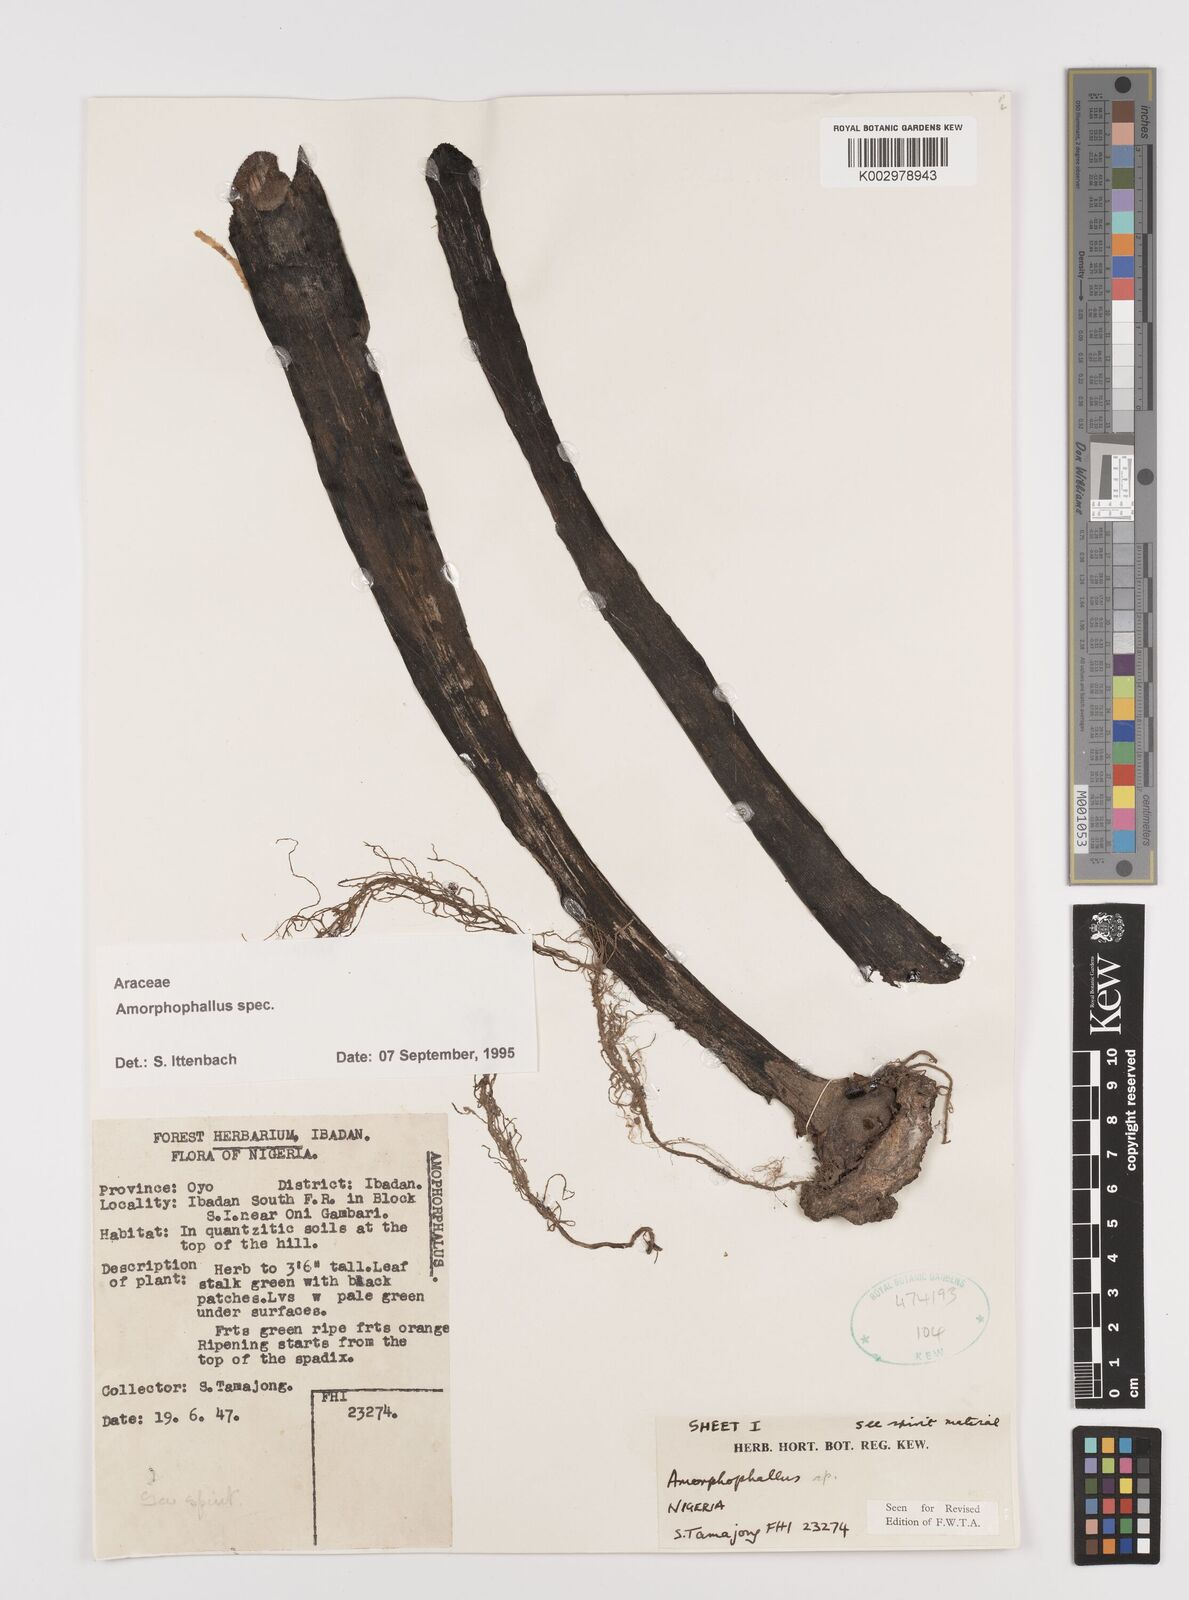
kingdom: Plantae
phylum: Tracheophyta
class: Liliopsida
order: Alismatales
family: Araceae
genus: Amorphophallus
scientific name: Amorphophallus
